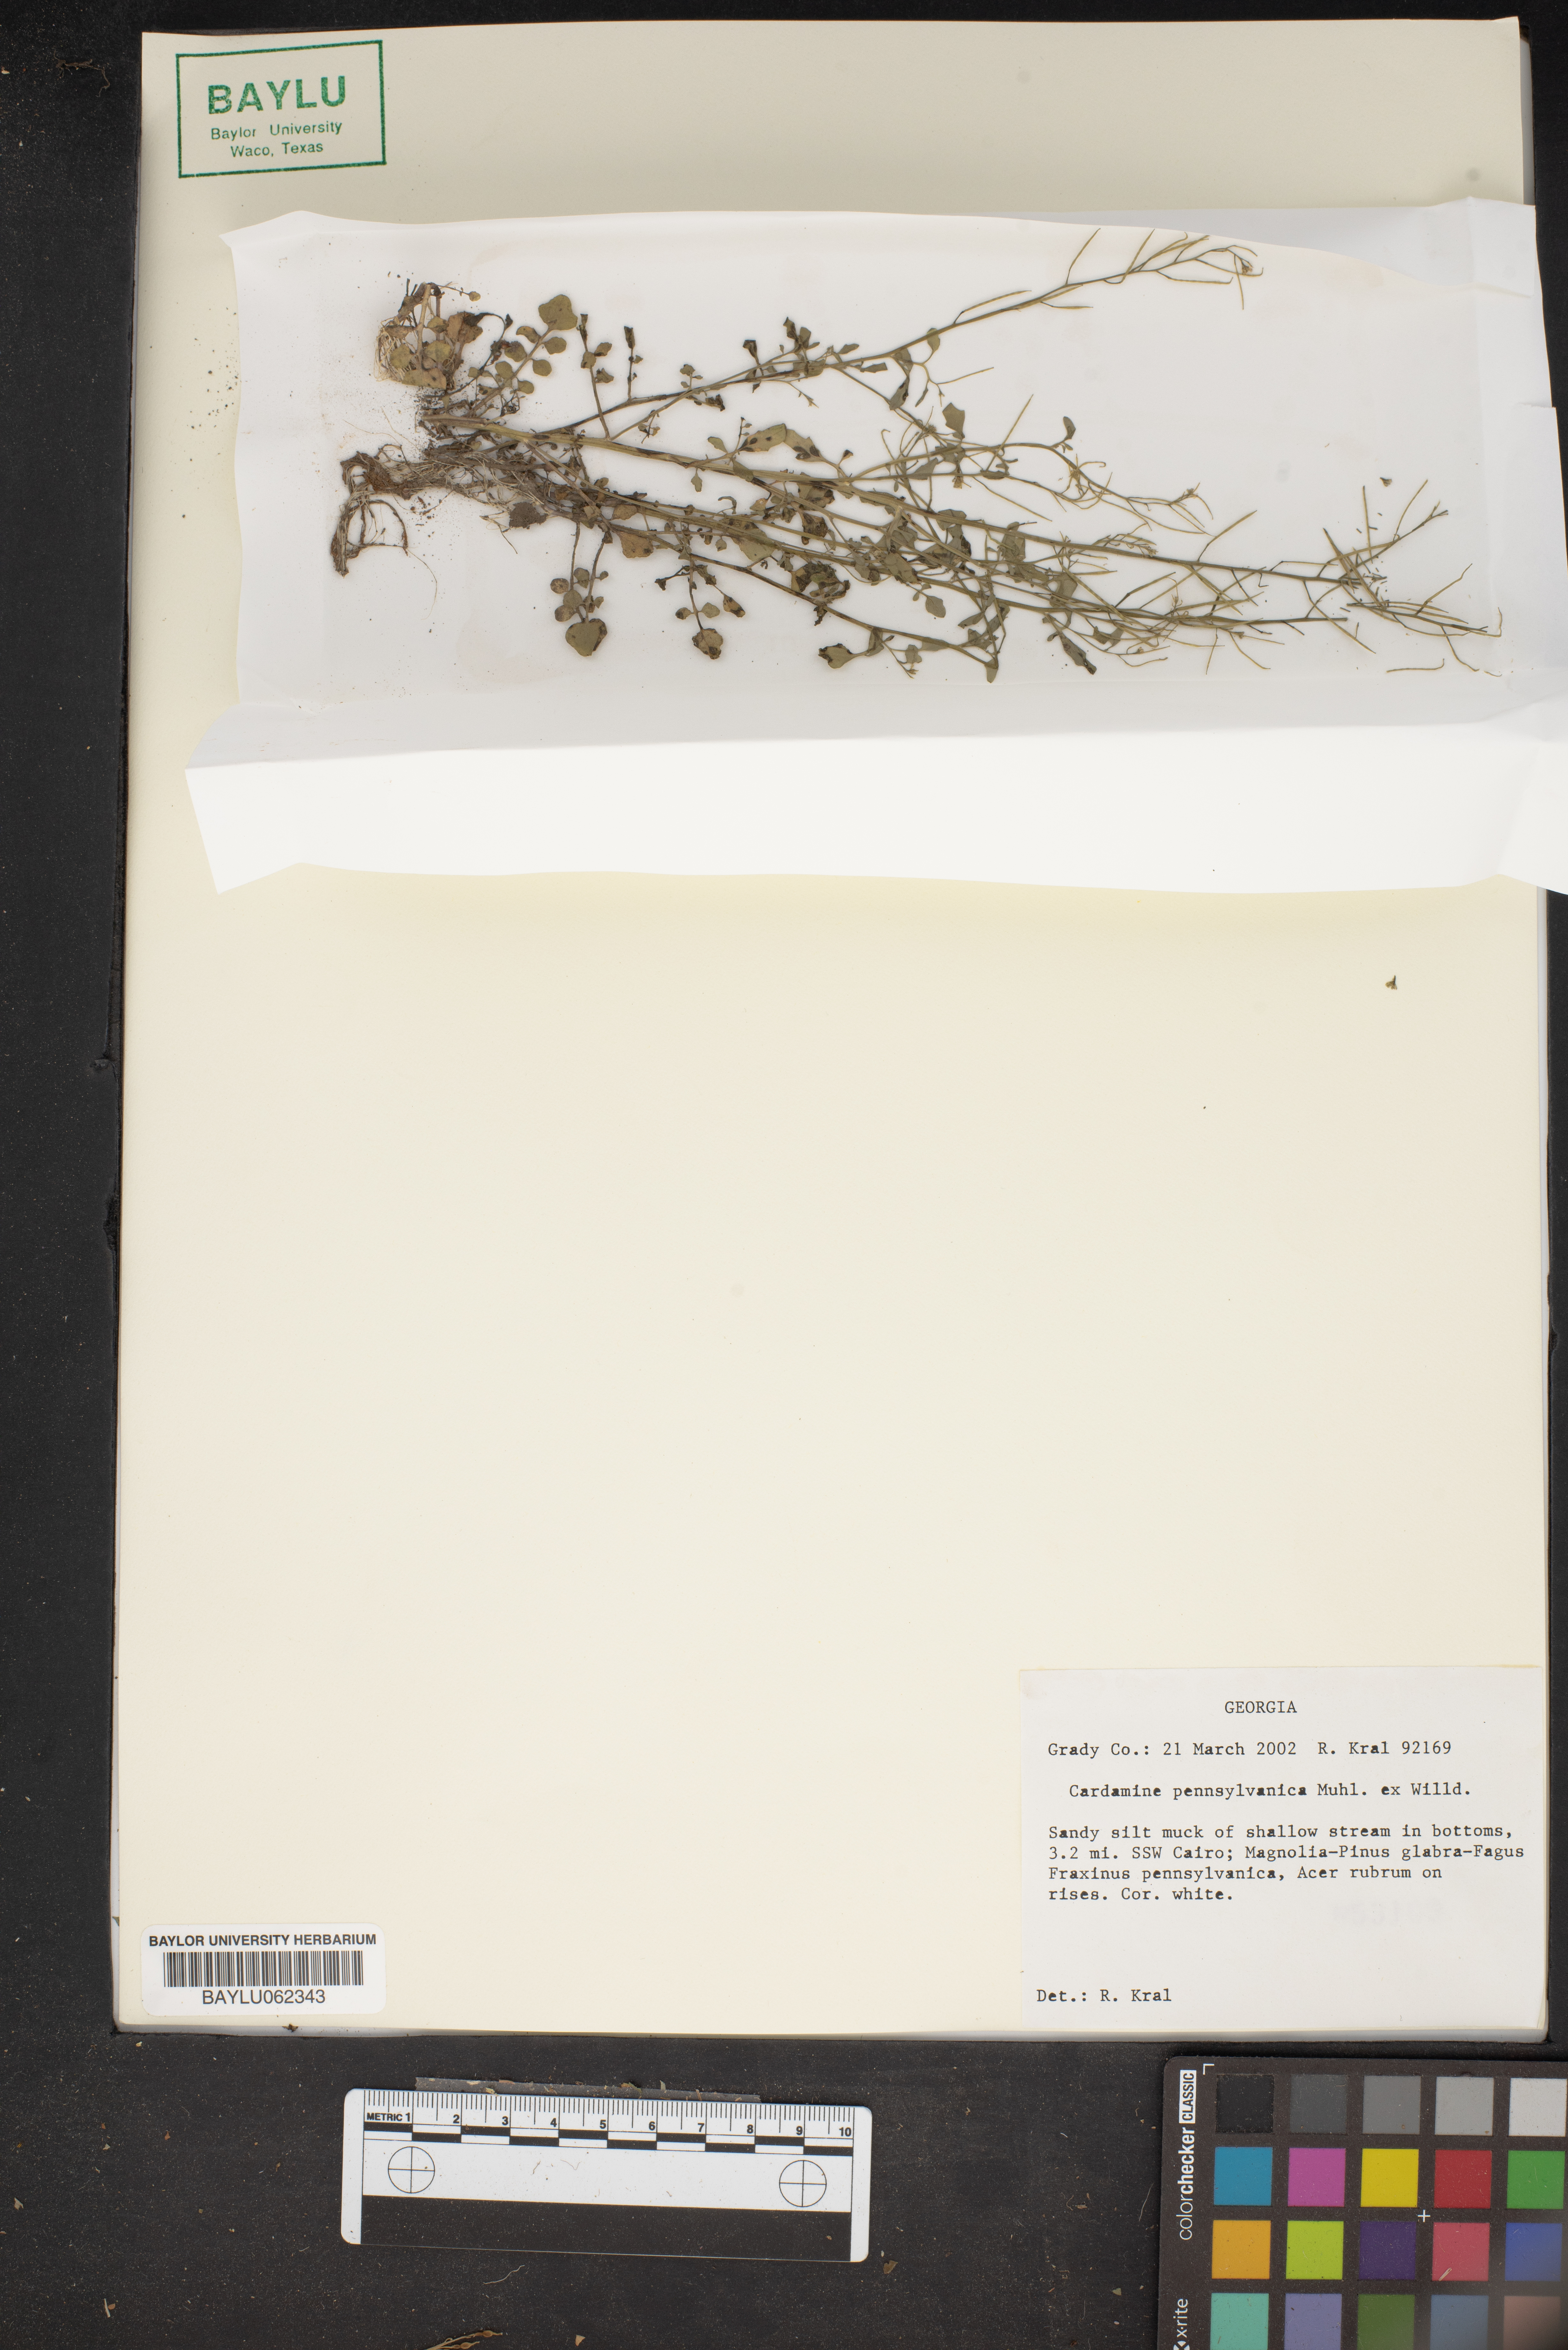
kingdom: Plantae
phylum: Tracheophyta
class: Magnoliopsida
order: Brassicales
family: Brassicaceae
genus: Cardamine
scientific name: Cardamine pensylvanica
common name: Pennsylvania bittercress
